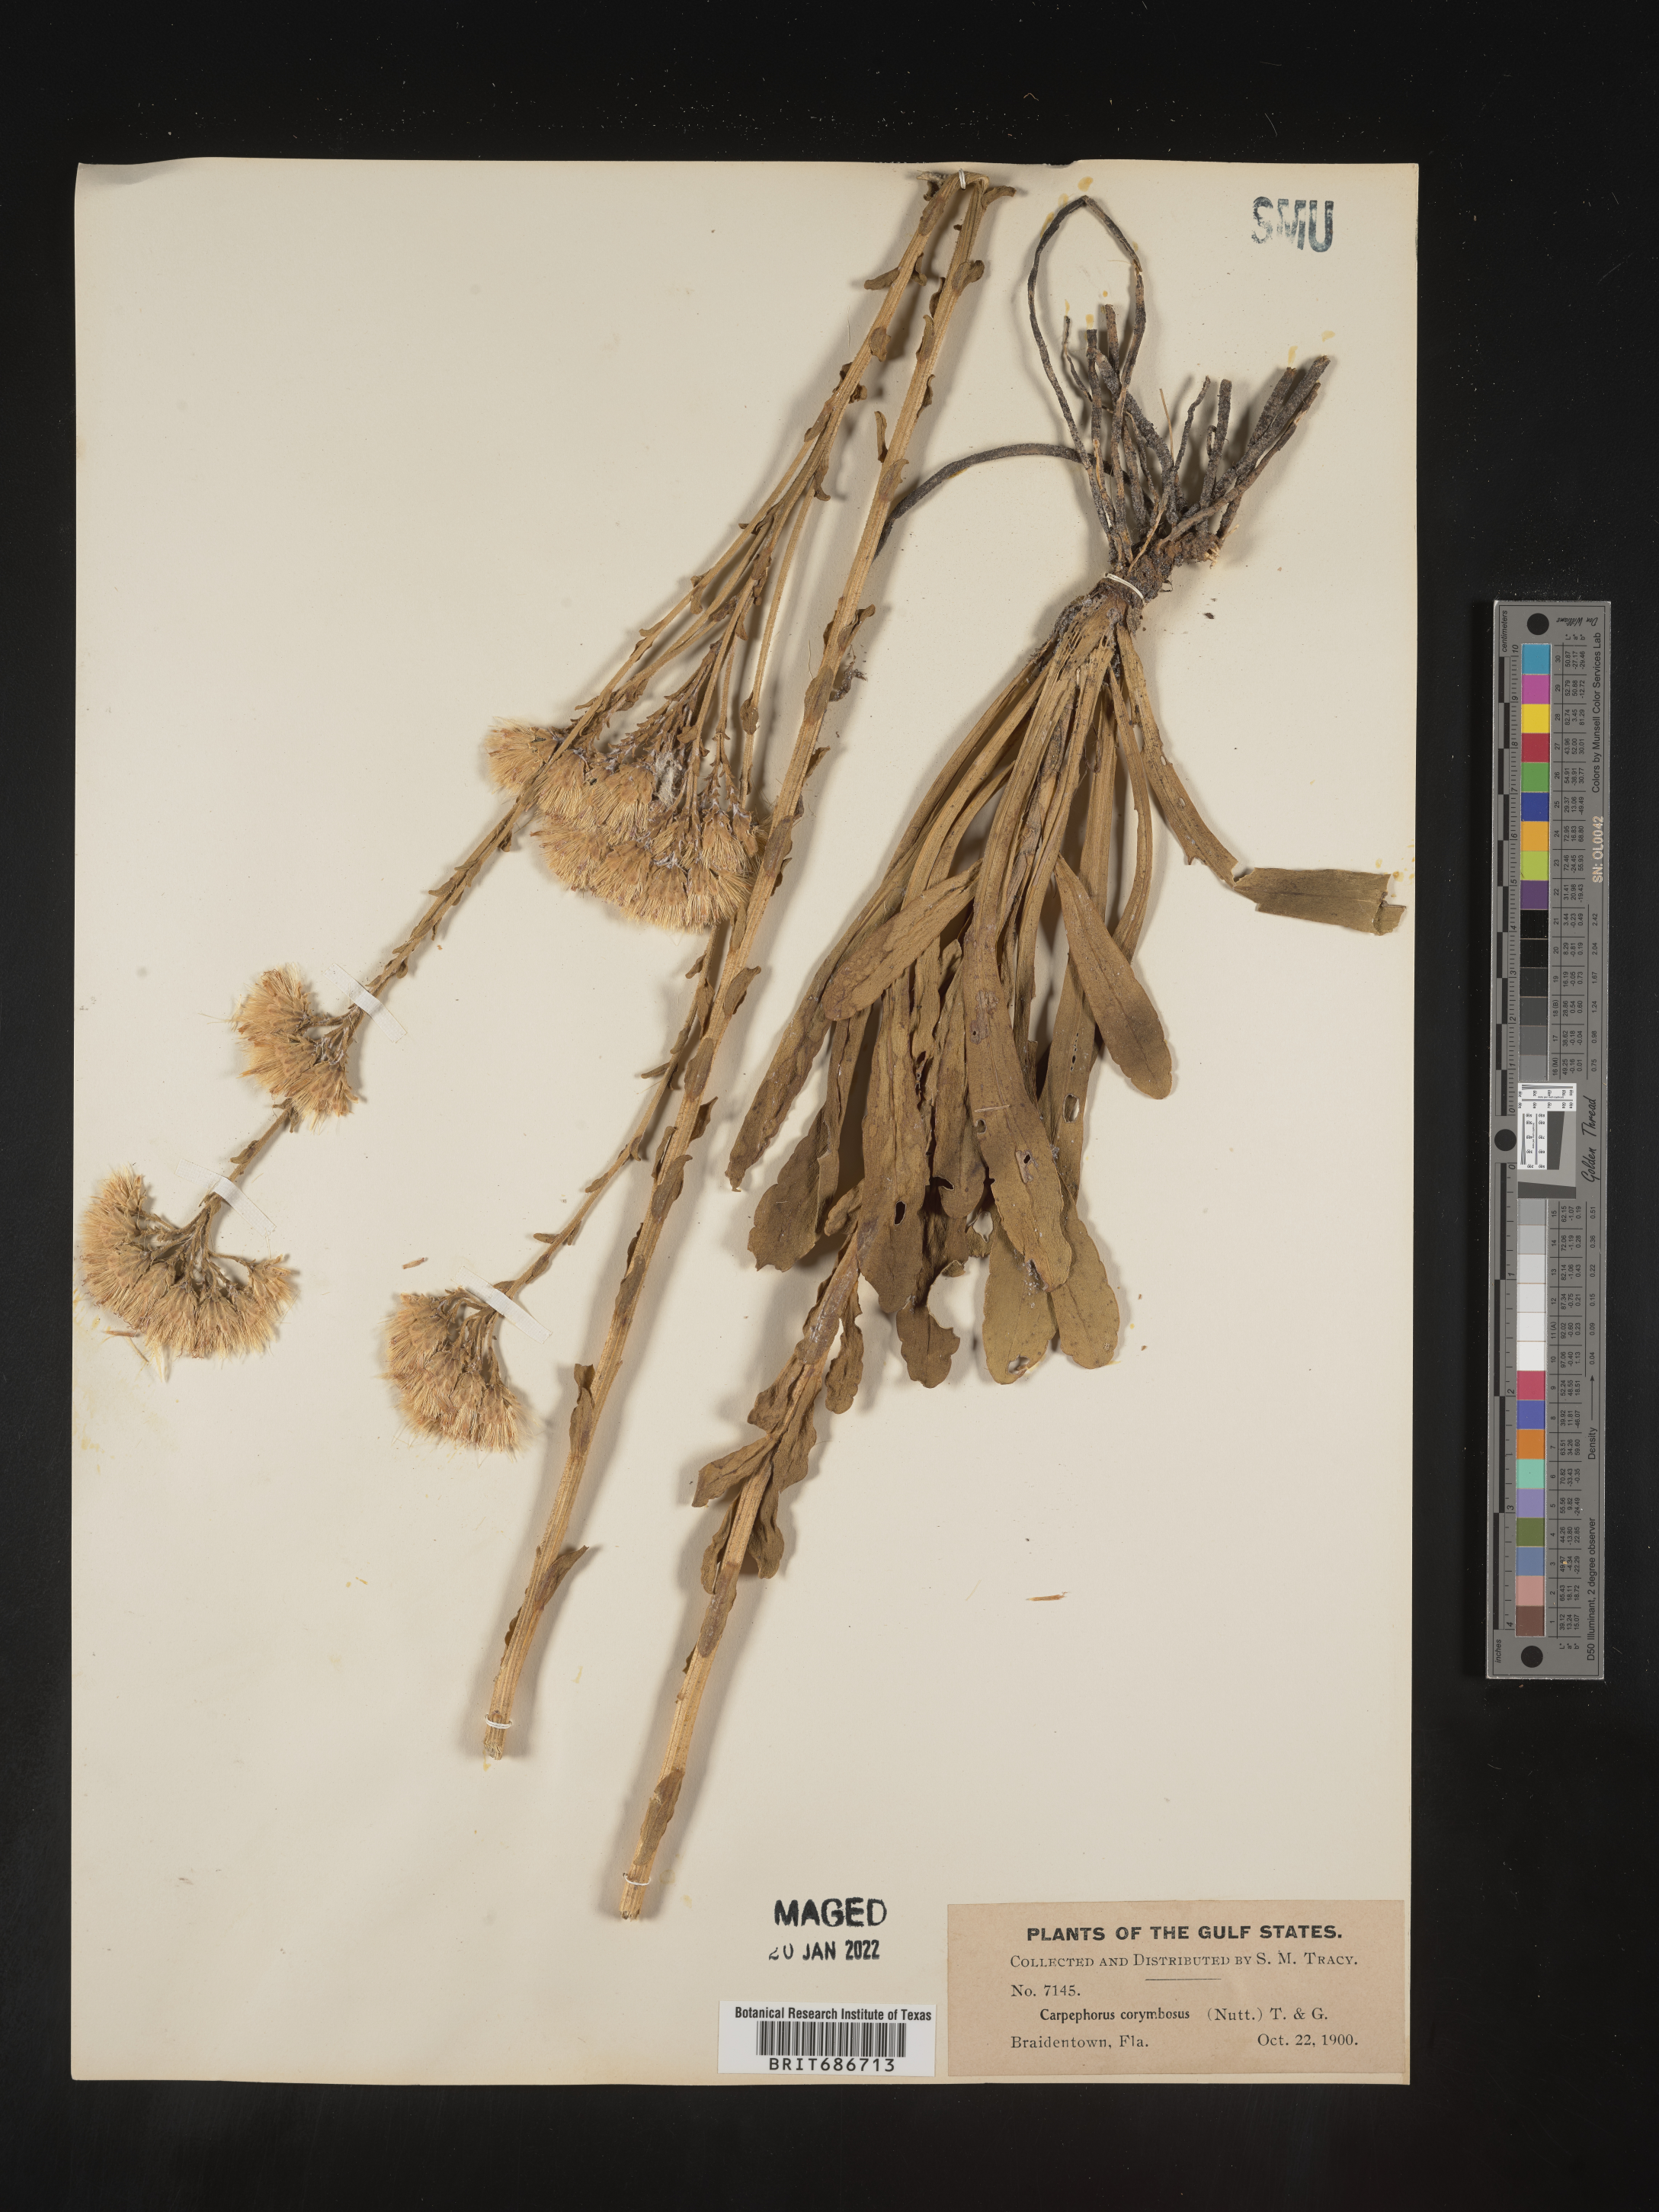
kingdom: Plantae
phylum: Tracheophyta
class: Magnoliopsida
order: Asterales
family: Asteraceae
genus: Carphephorus
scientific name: Carphephorus corymbosus
